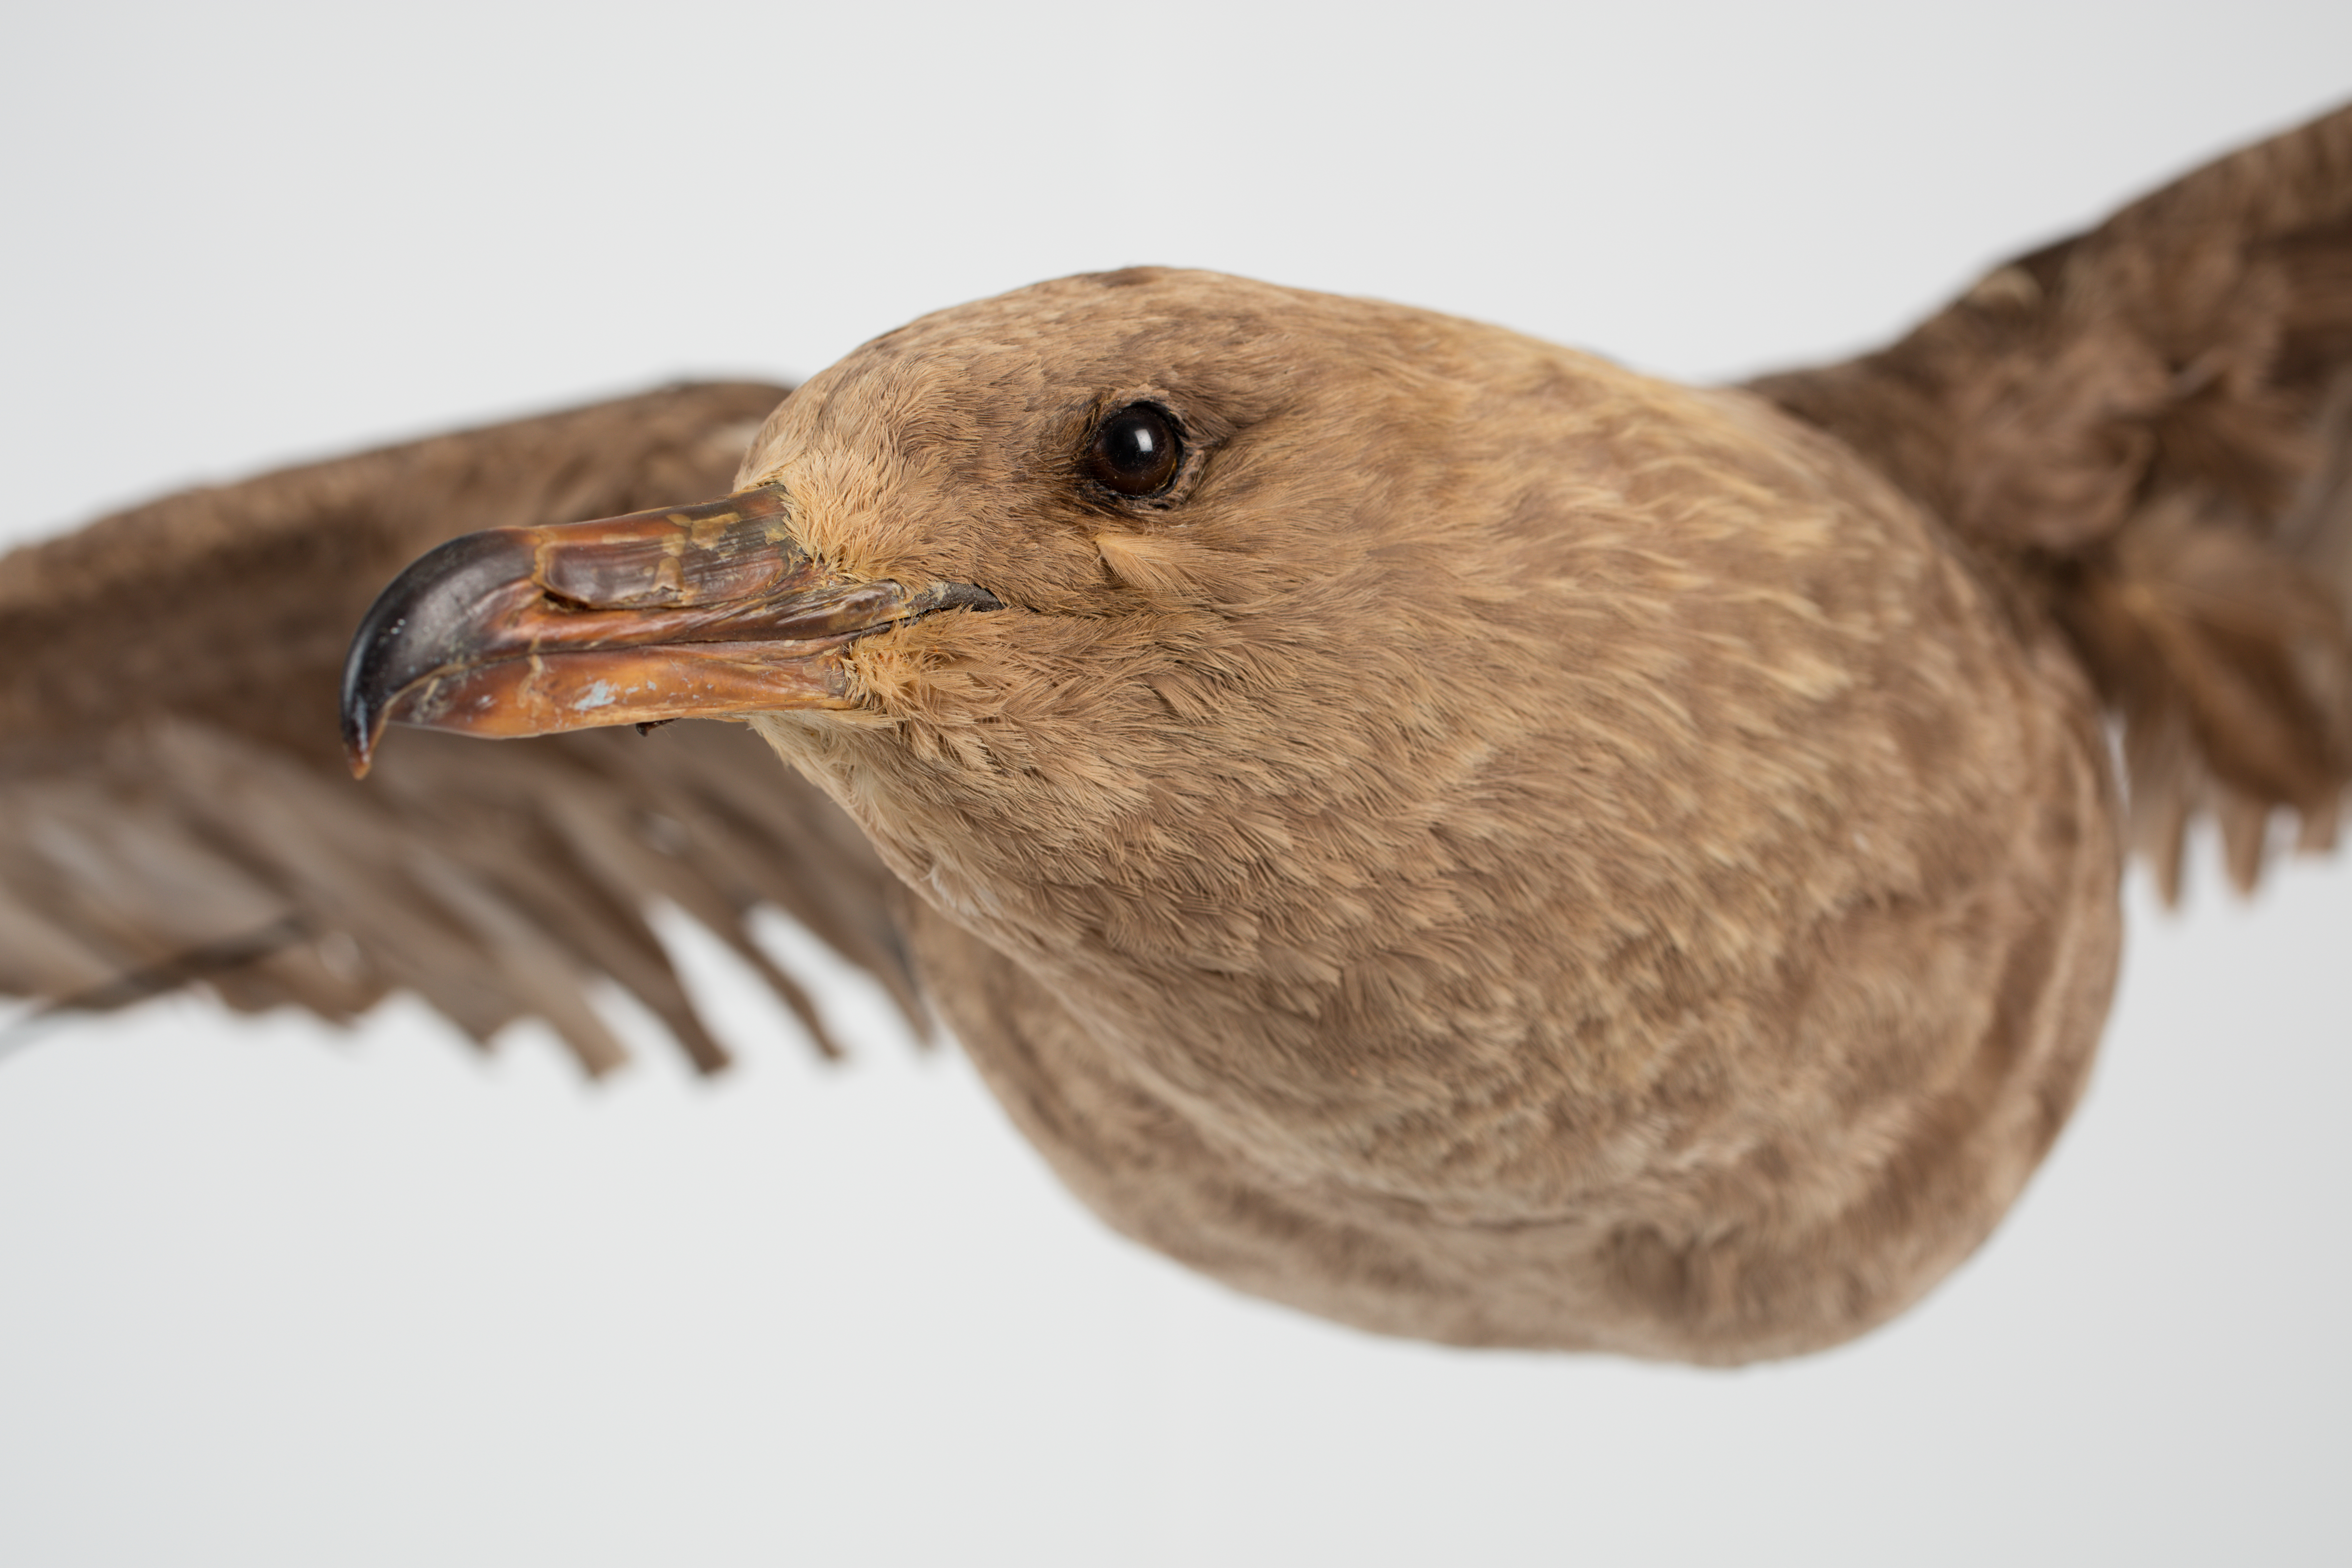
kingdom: Animalia
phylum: Chordata
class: Aves
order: Charadriiformes
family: Stercorariidae
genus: Stercorarius
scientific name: Stercorarius
